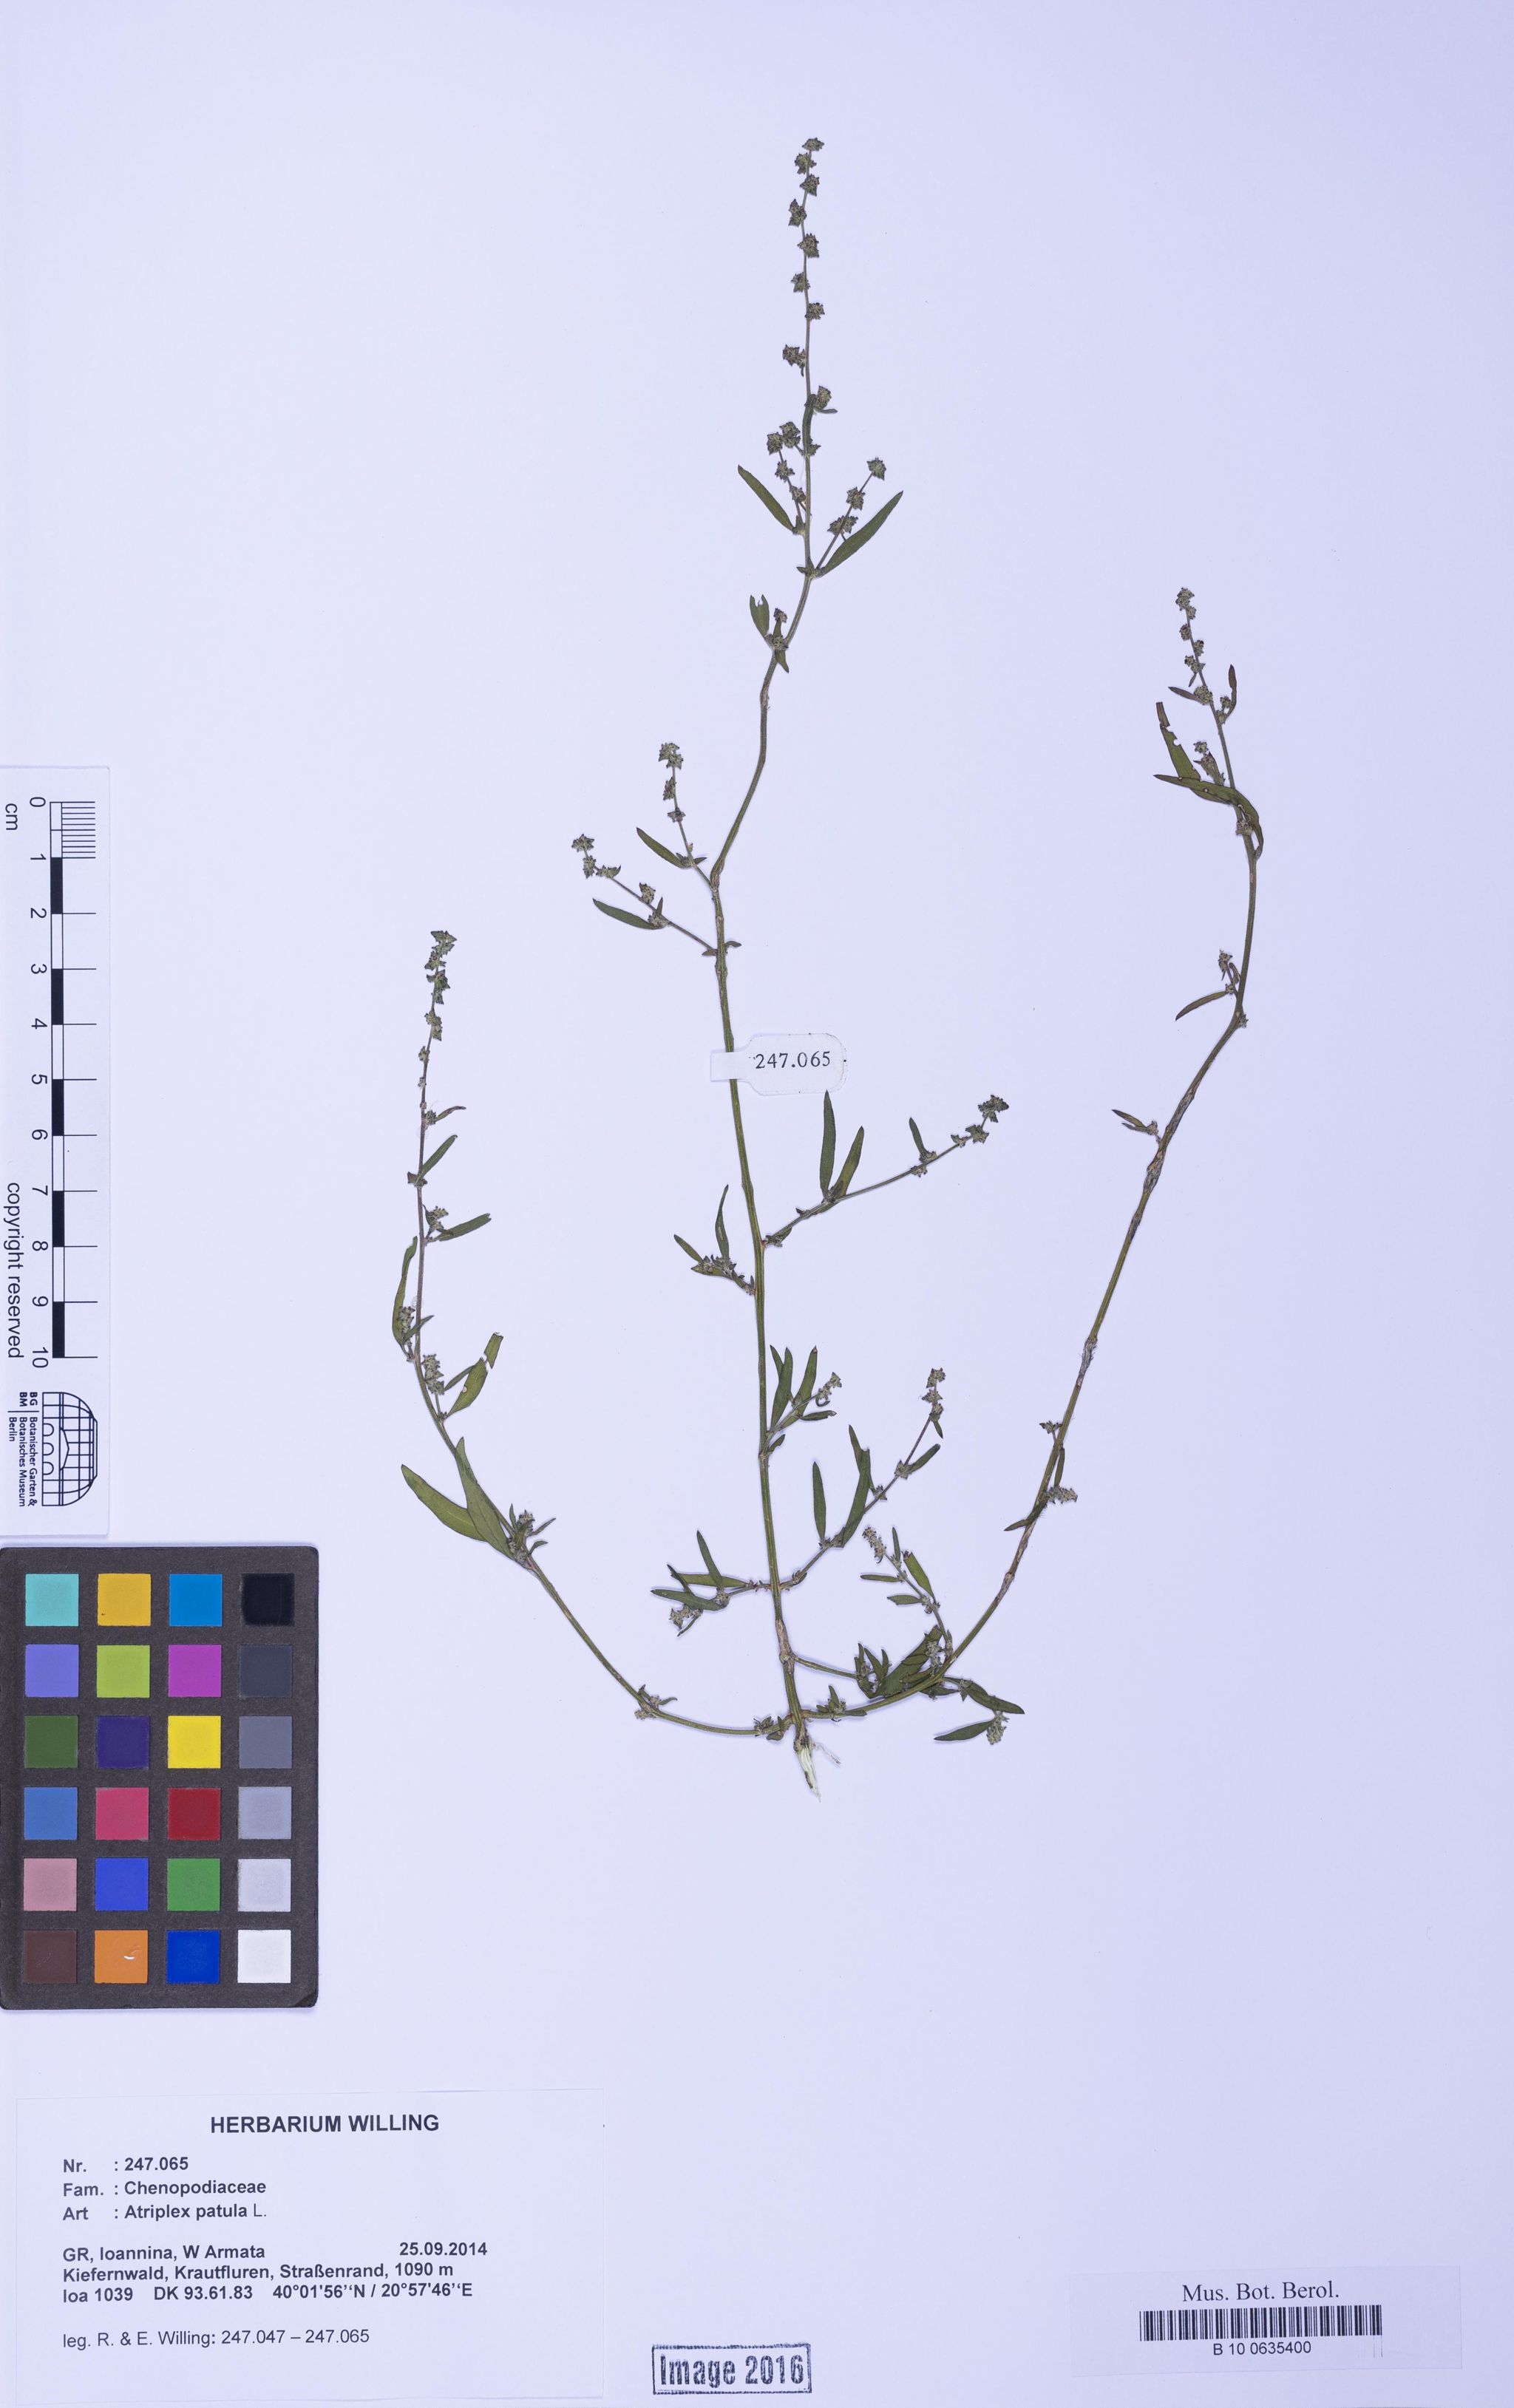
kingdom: Plantae
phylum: Tracheophyta
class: Magnoliopsida
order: Caryophyllales
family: Amaranthaceae
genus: Atriplex
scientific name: Atriplex patula
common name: Common orache
